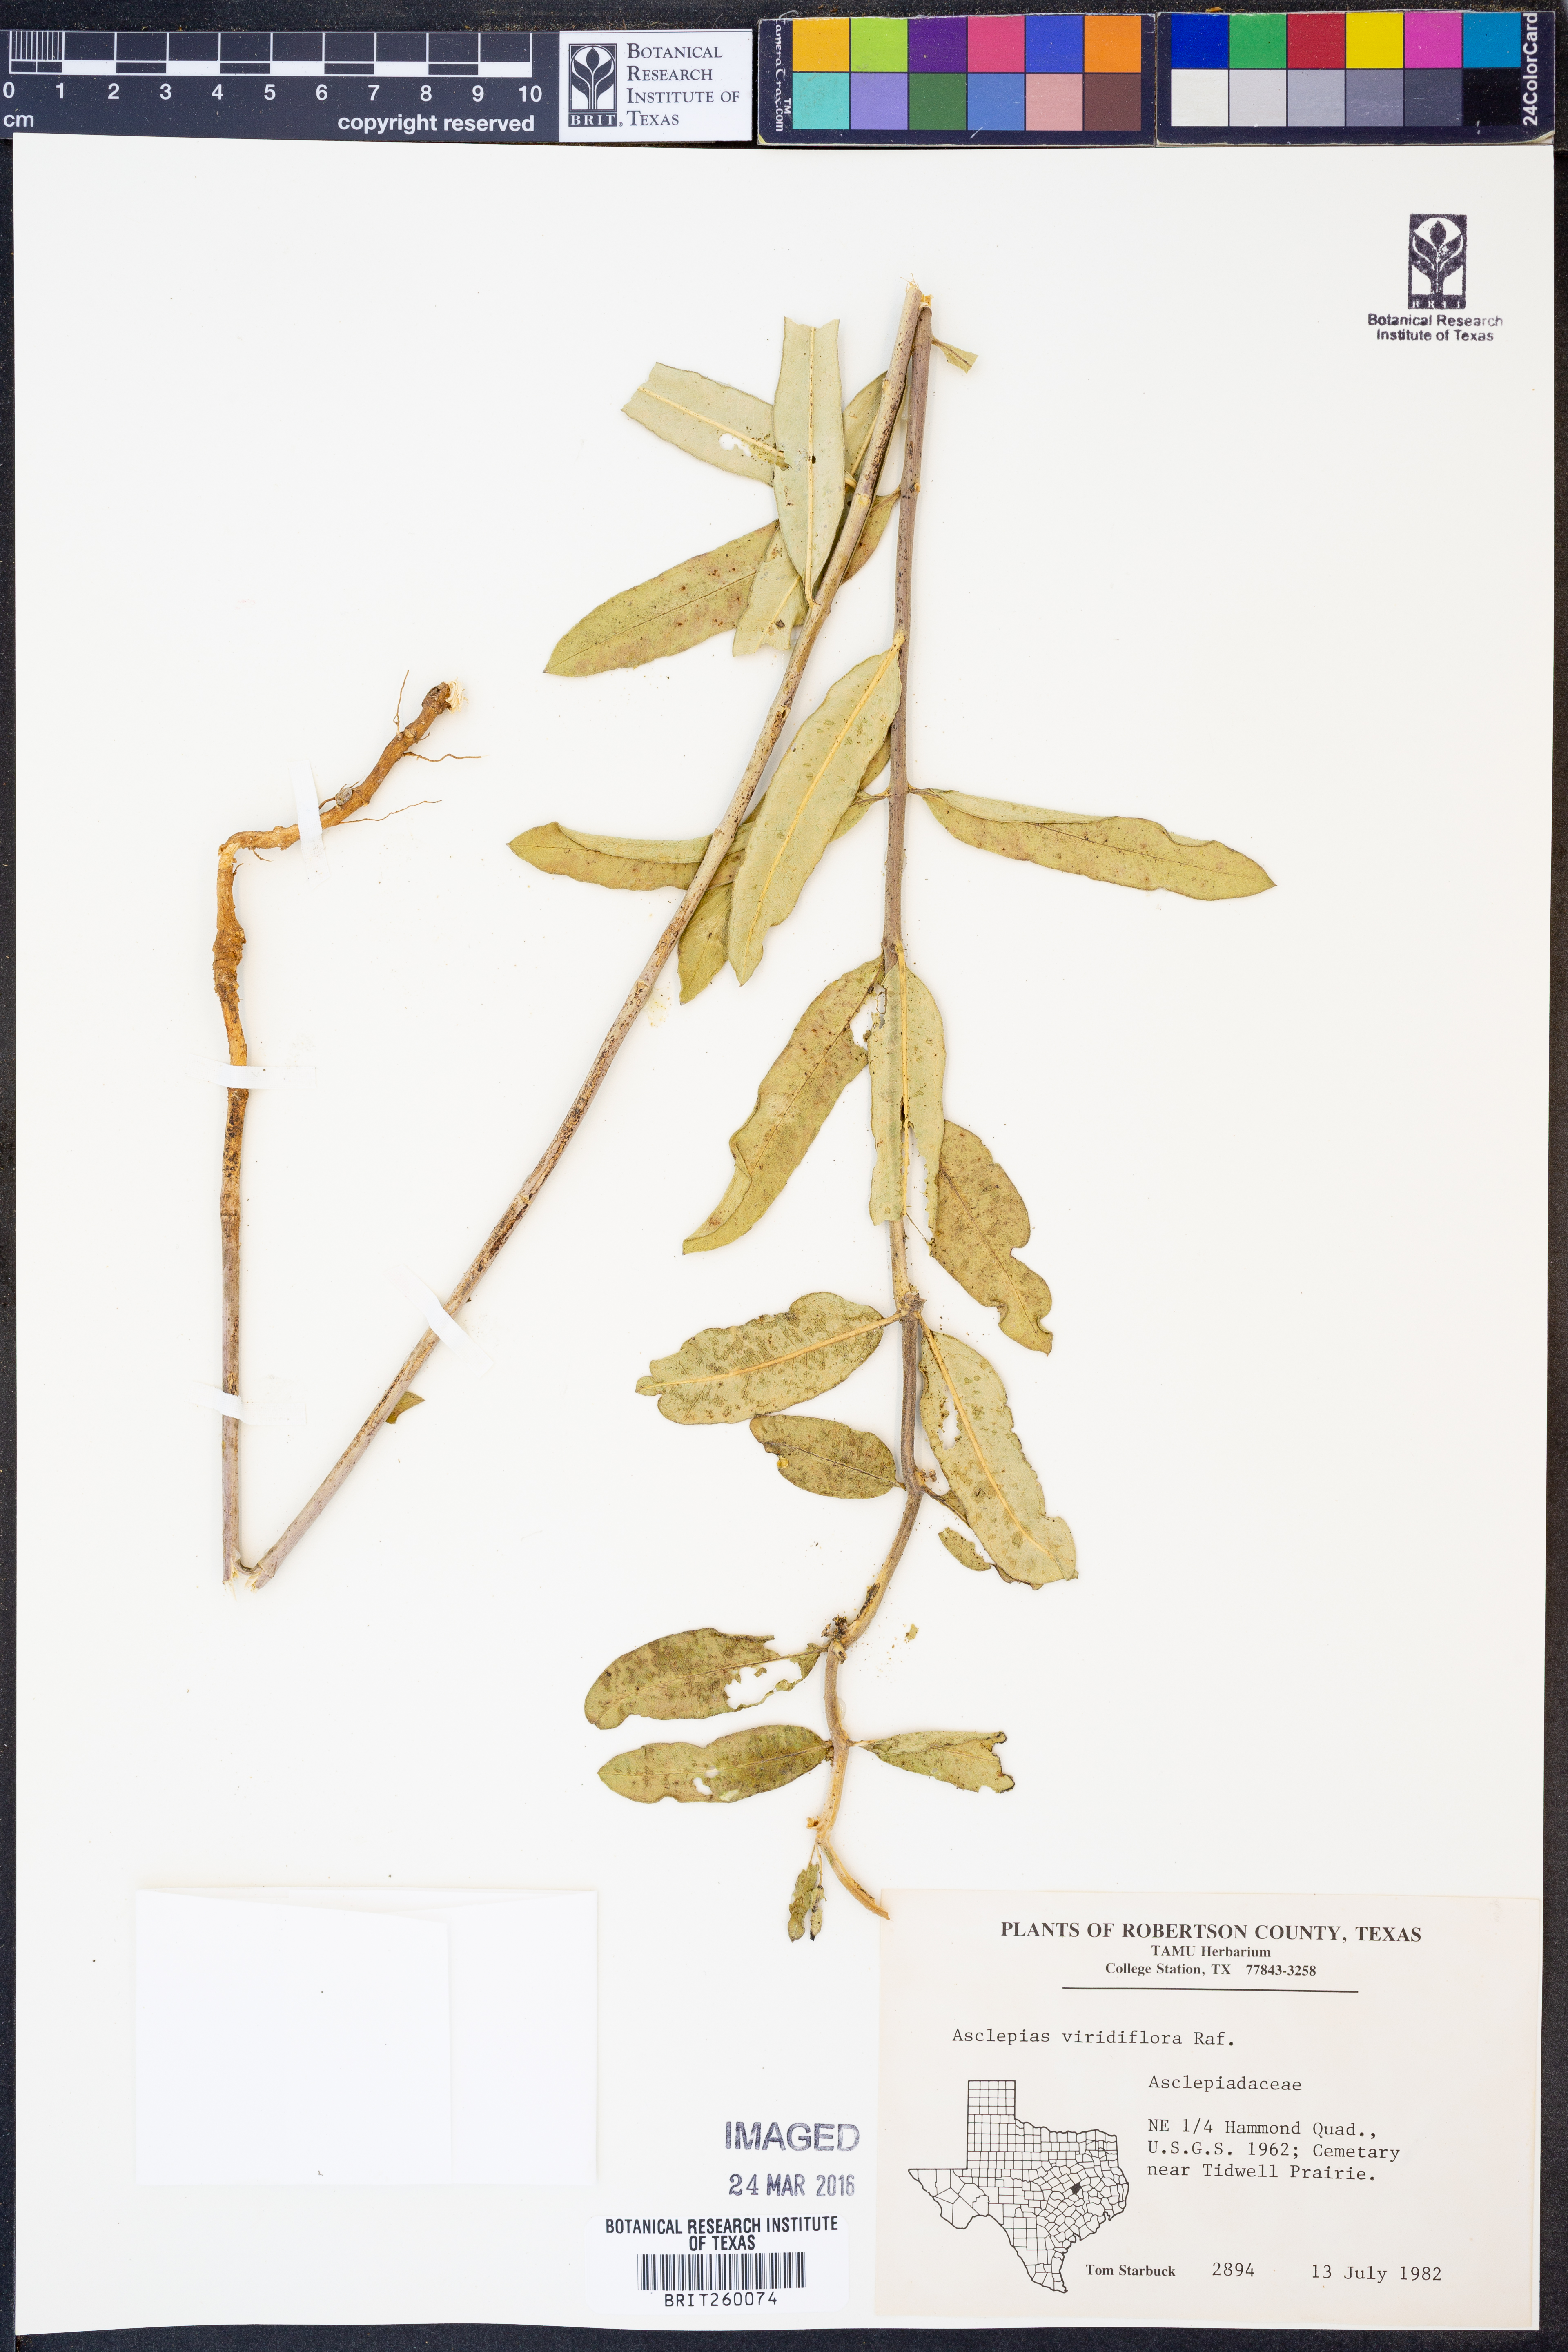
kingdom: Plantae
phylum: Tracheophyta
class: Magnoliopsida
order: Gentianales
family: Apocynaceae
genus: Asclepias
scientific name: Asclepias viridiflora
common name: Green comet milkweed
